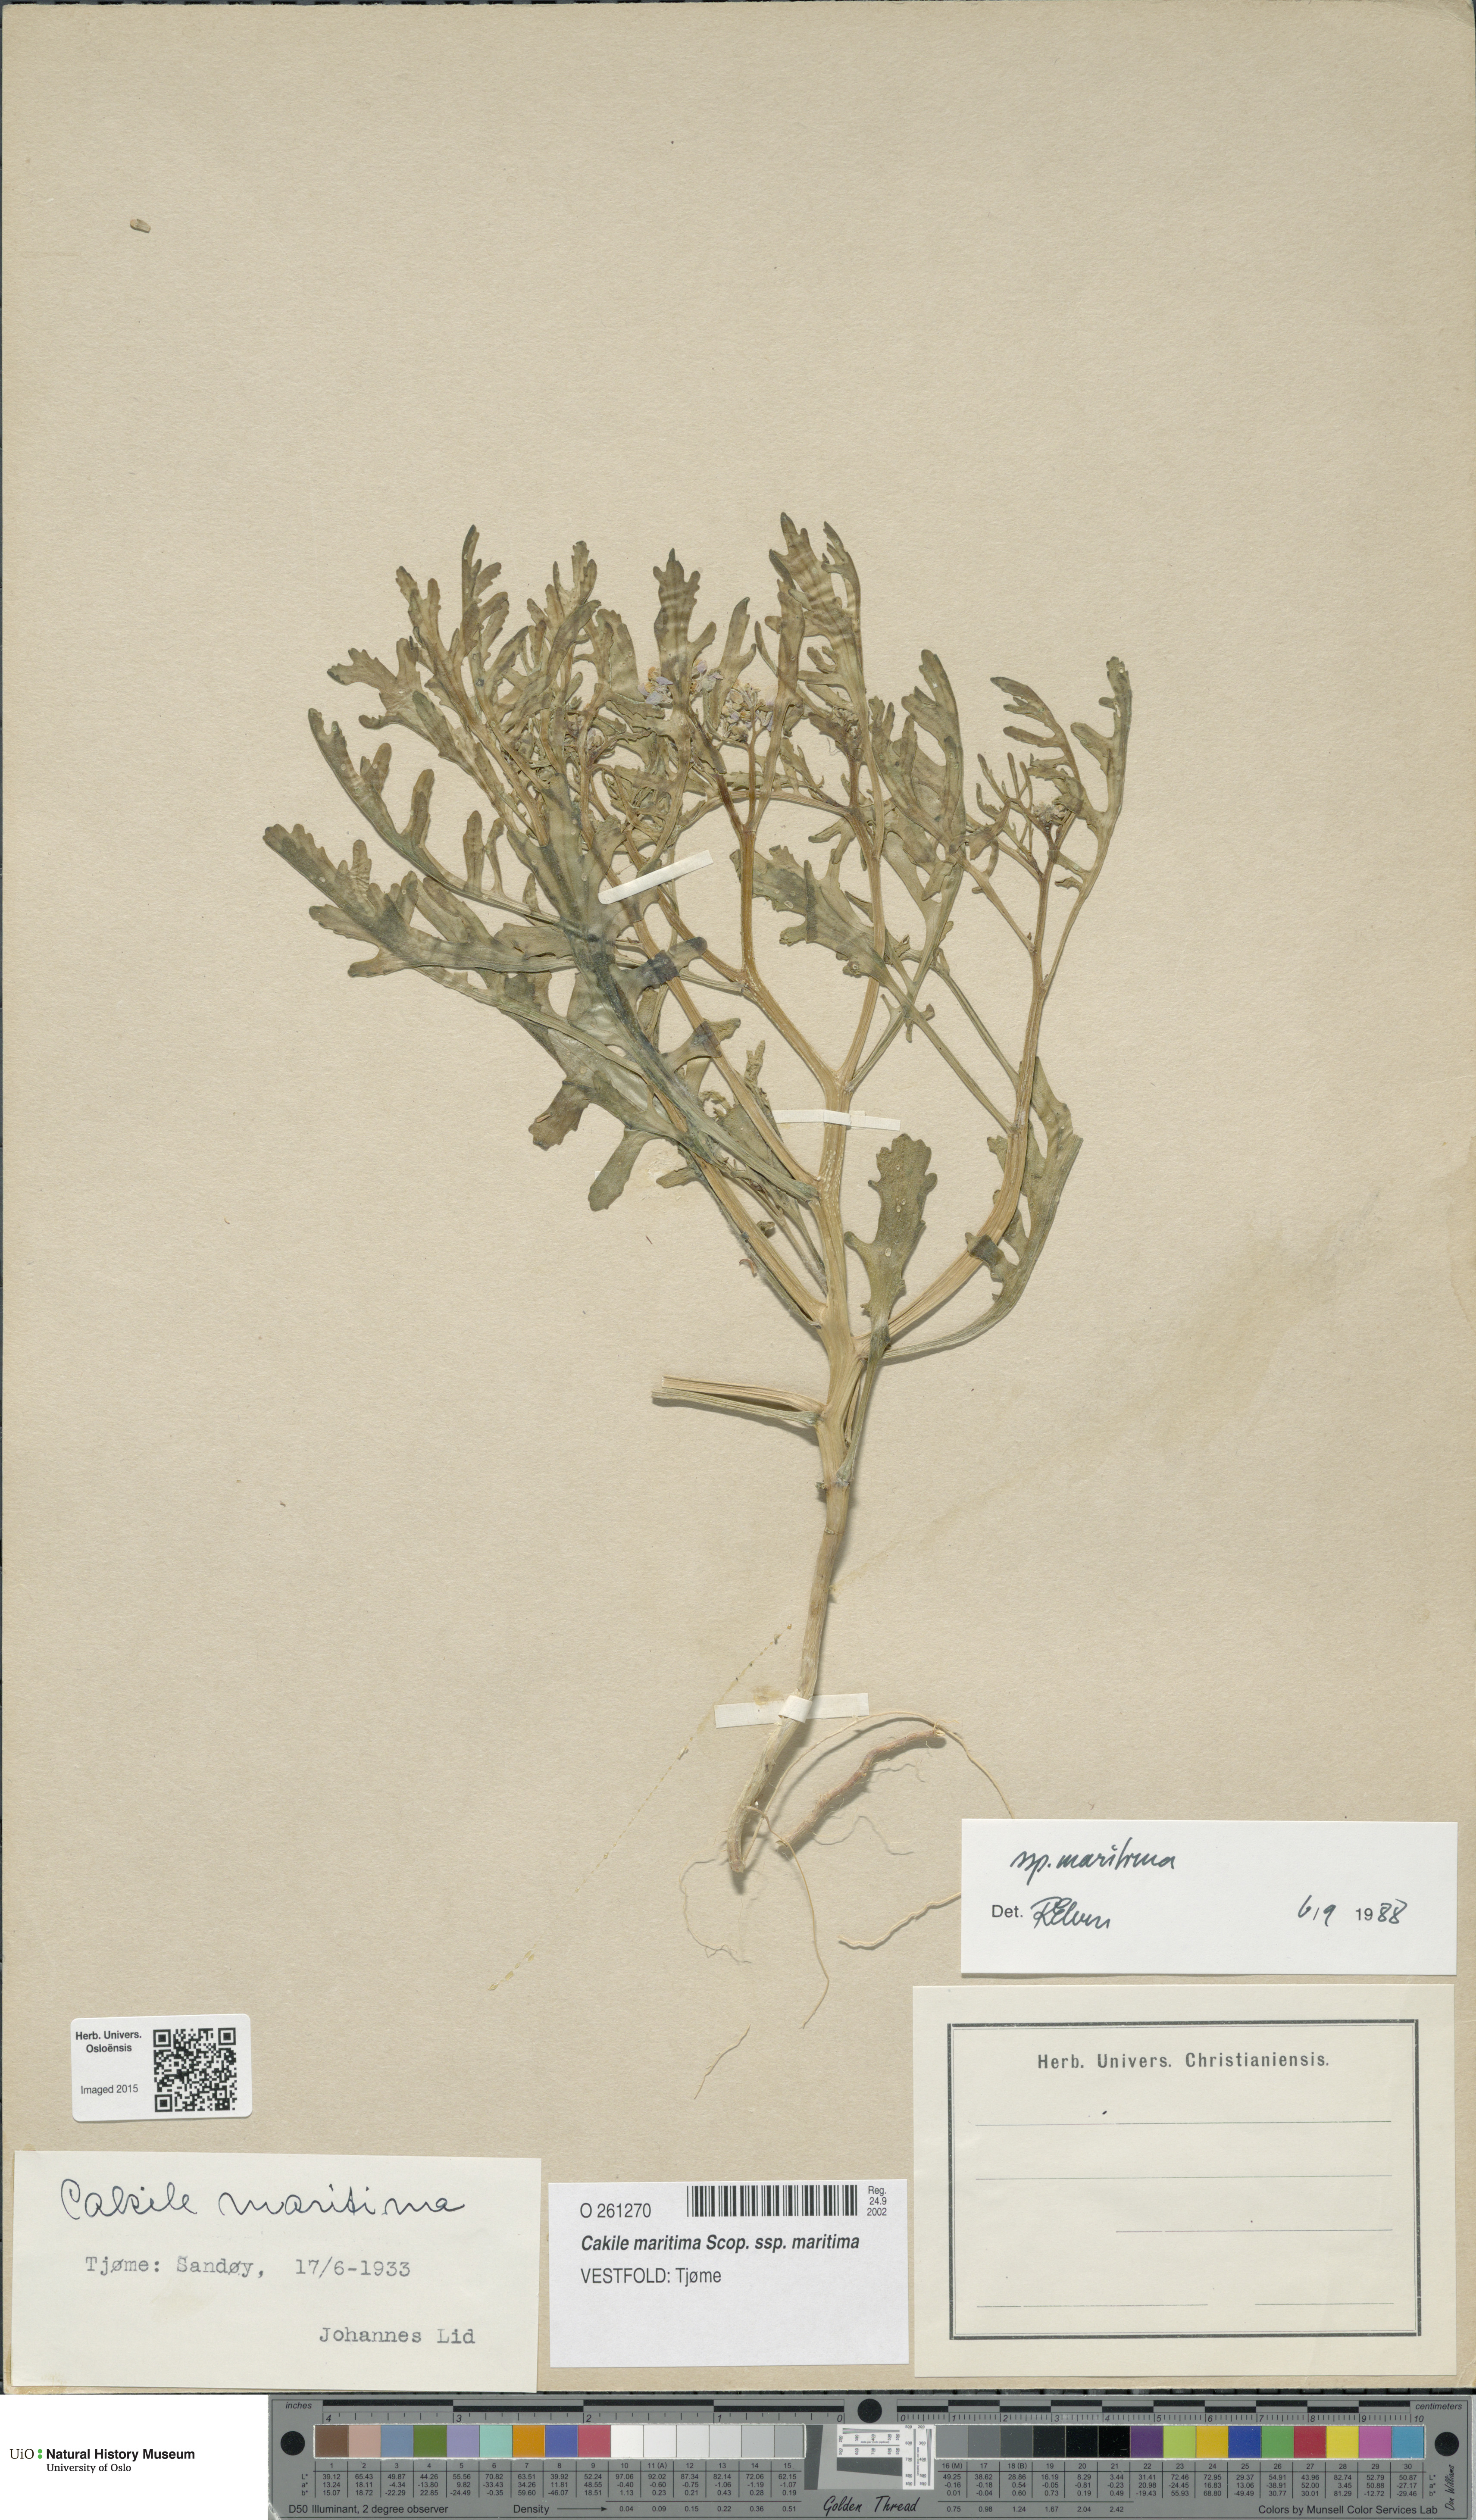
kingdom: Plantae
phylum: Tracheophyta
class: Magnoliopsida
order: Brassicales
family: Brassicaceae
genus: Cakile
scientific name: Cakile maritima
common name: Sea rocket
